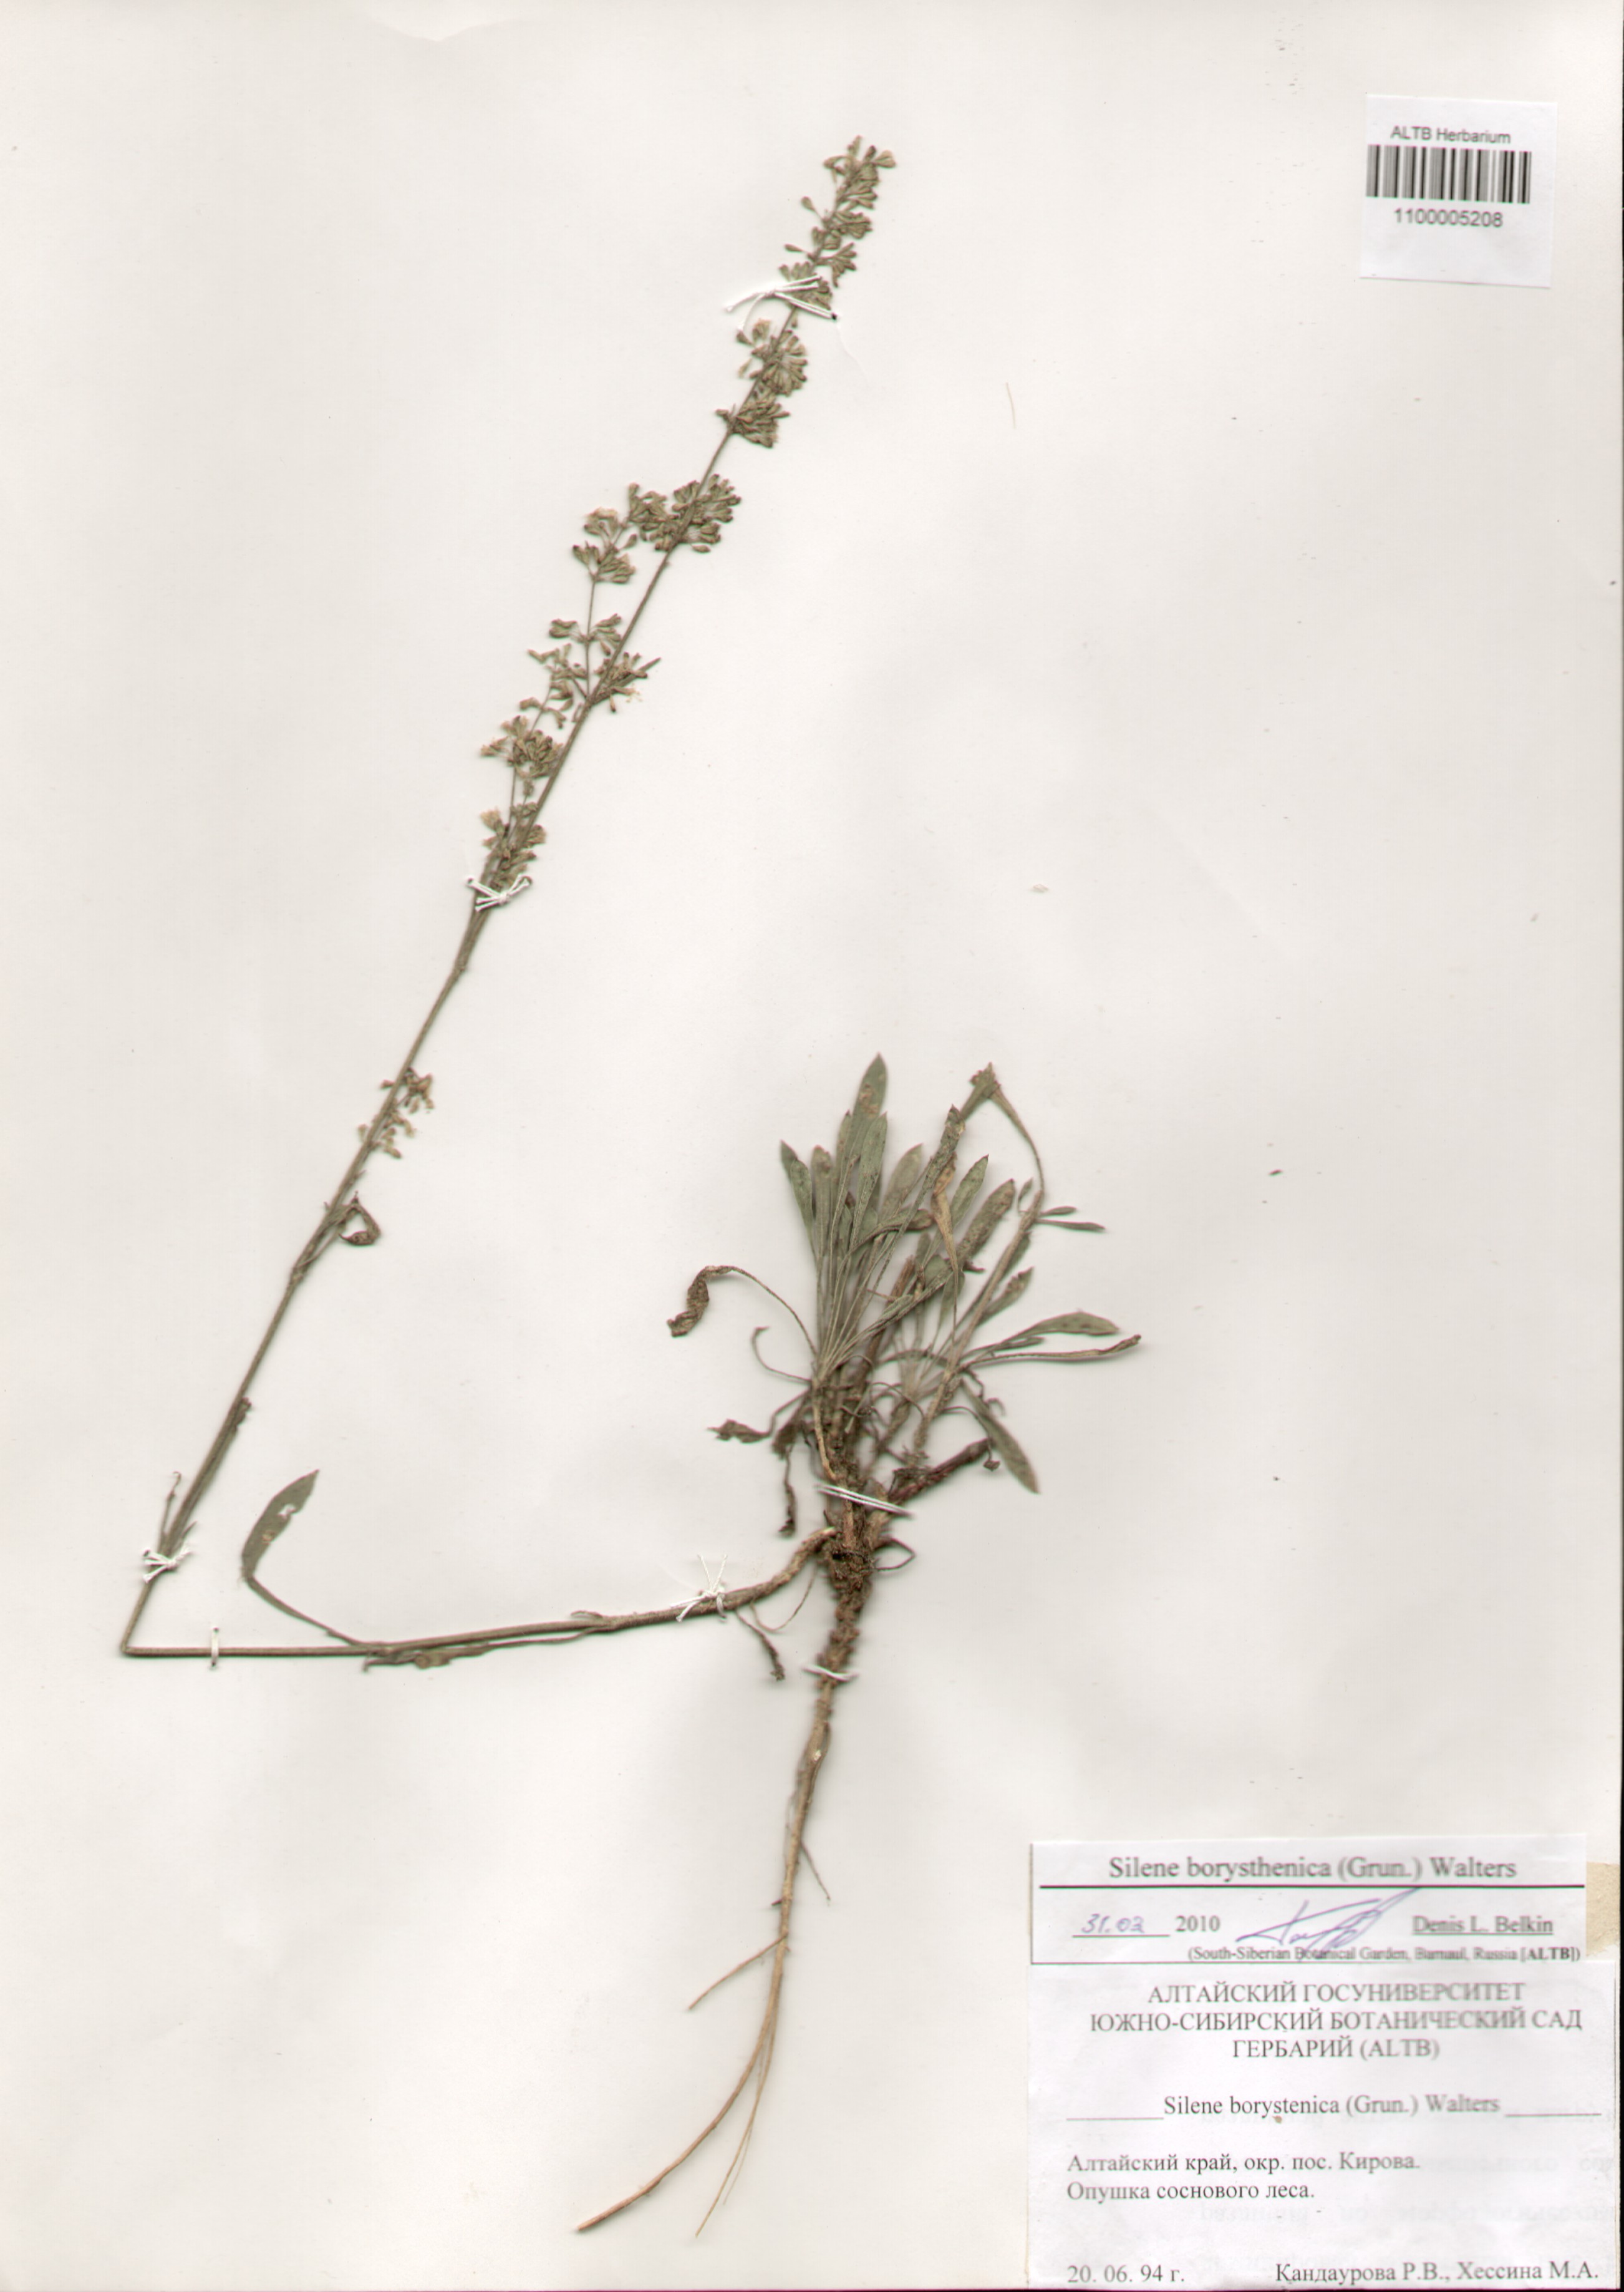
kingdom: Plantae
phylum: Tracheophyta
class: Magnoliopsida
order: Caryophyllales
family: Caryophyllaceae
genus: Silene
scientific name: Silene borysthenica
